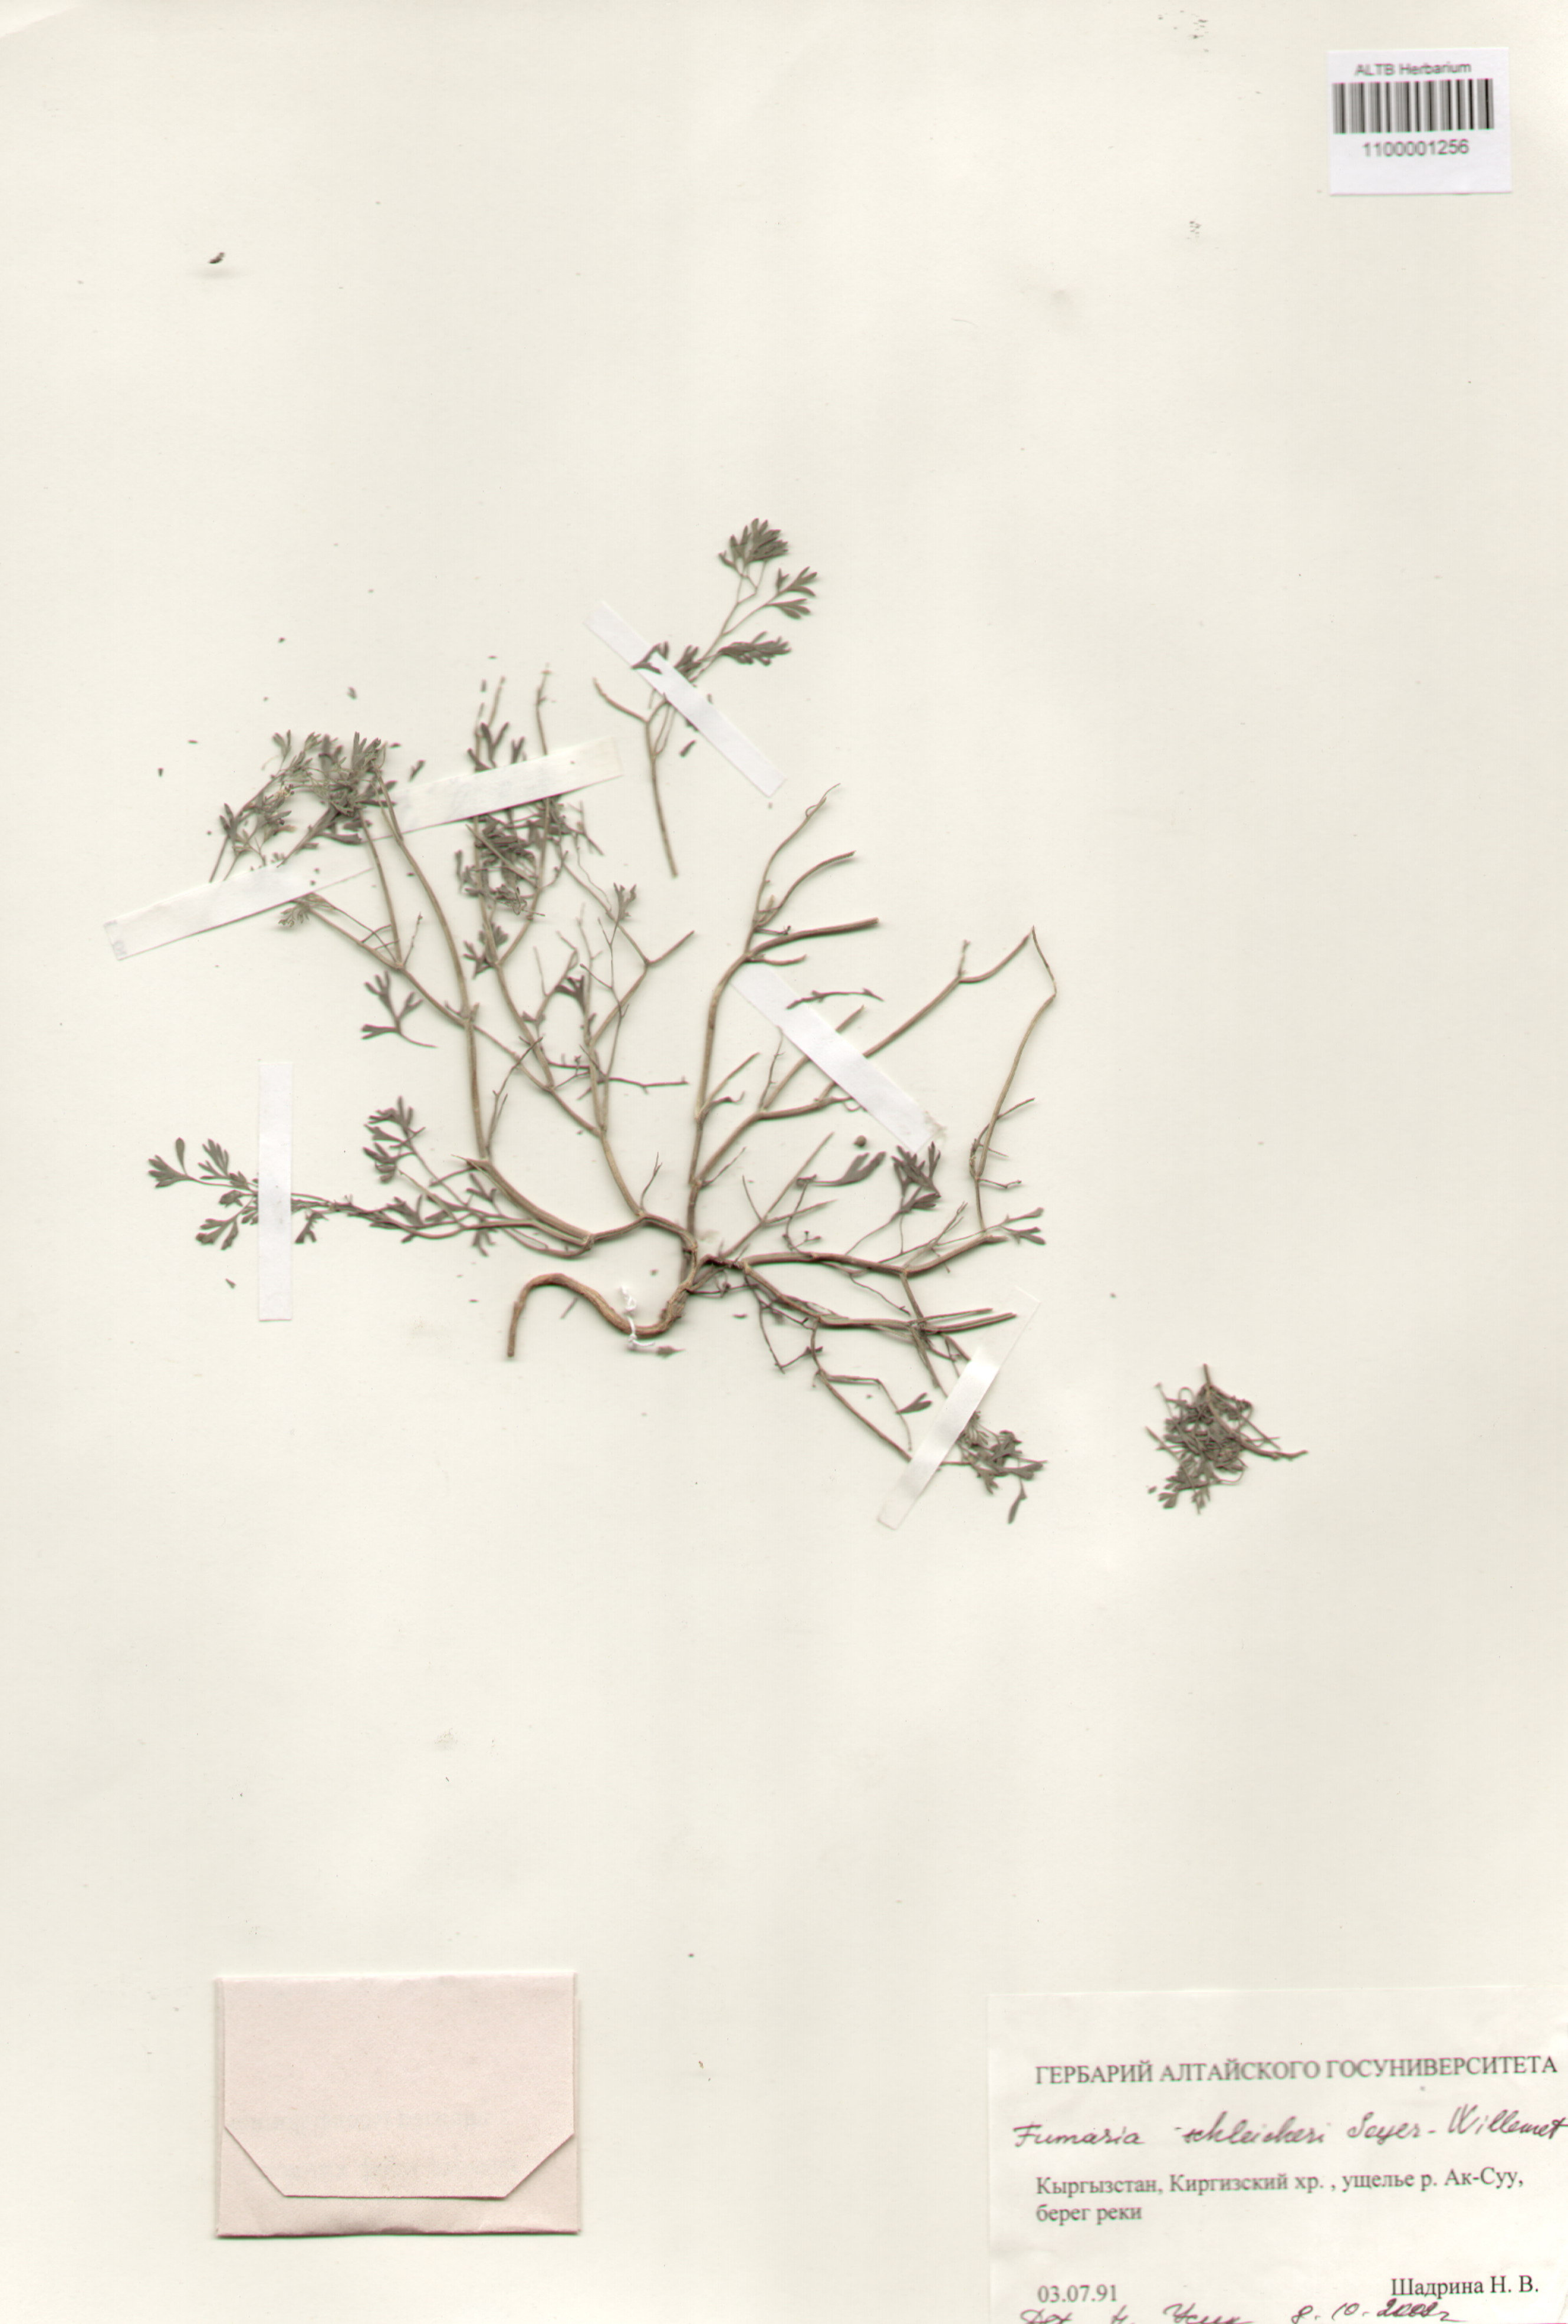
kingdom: Plantae
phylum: Tracheophyta
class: Magnoliopsida
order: Ranunculales
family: Papaveraceae
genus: Fumaria
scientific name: Fumaria schleicheri
